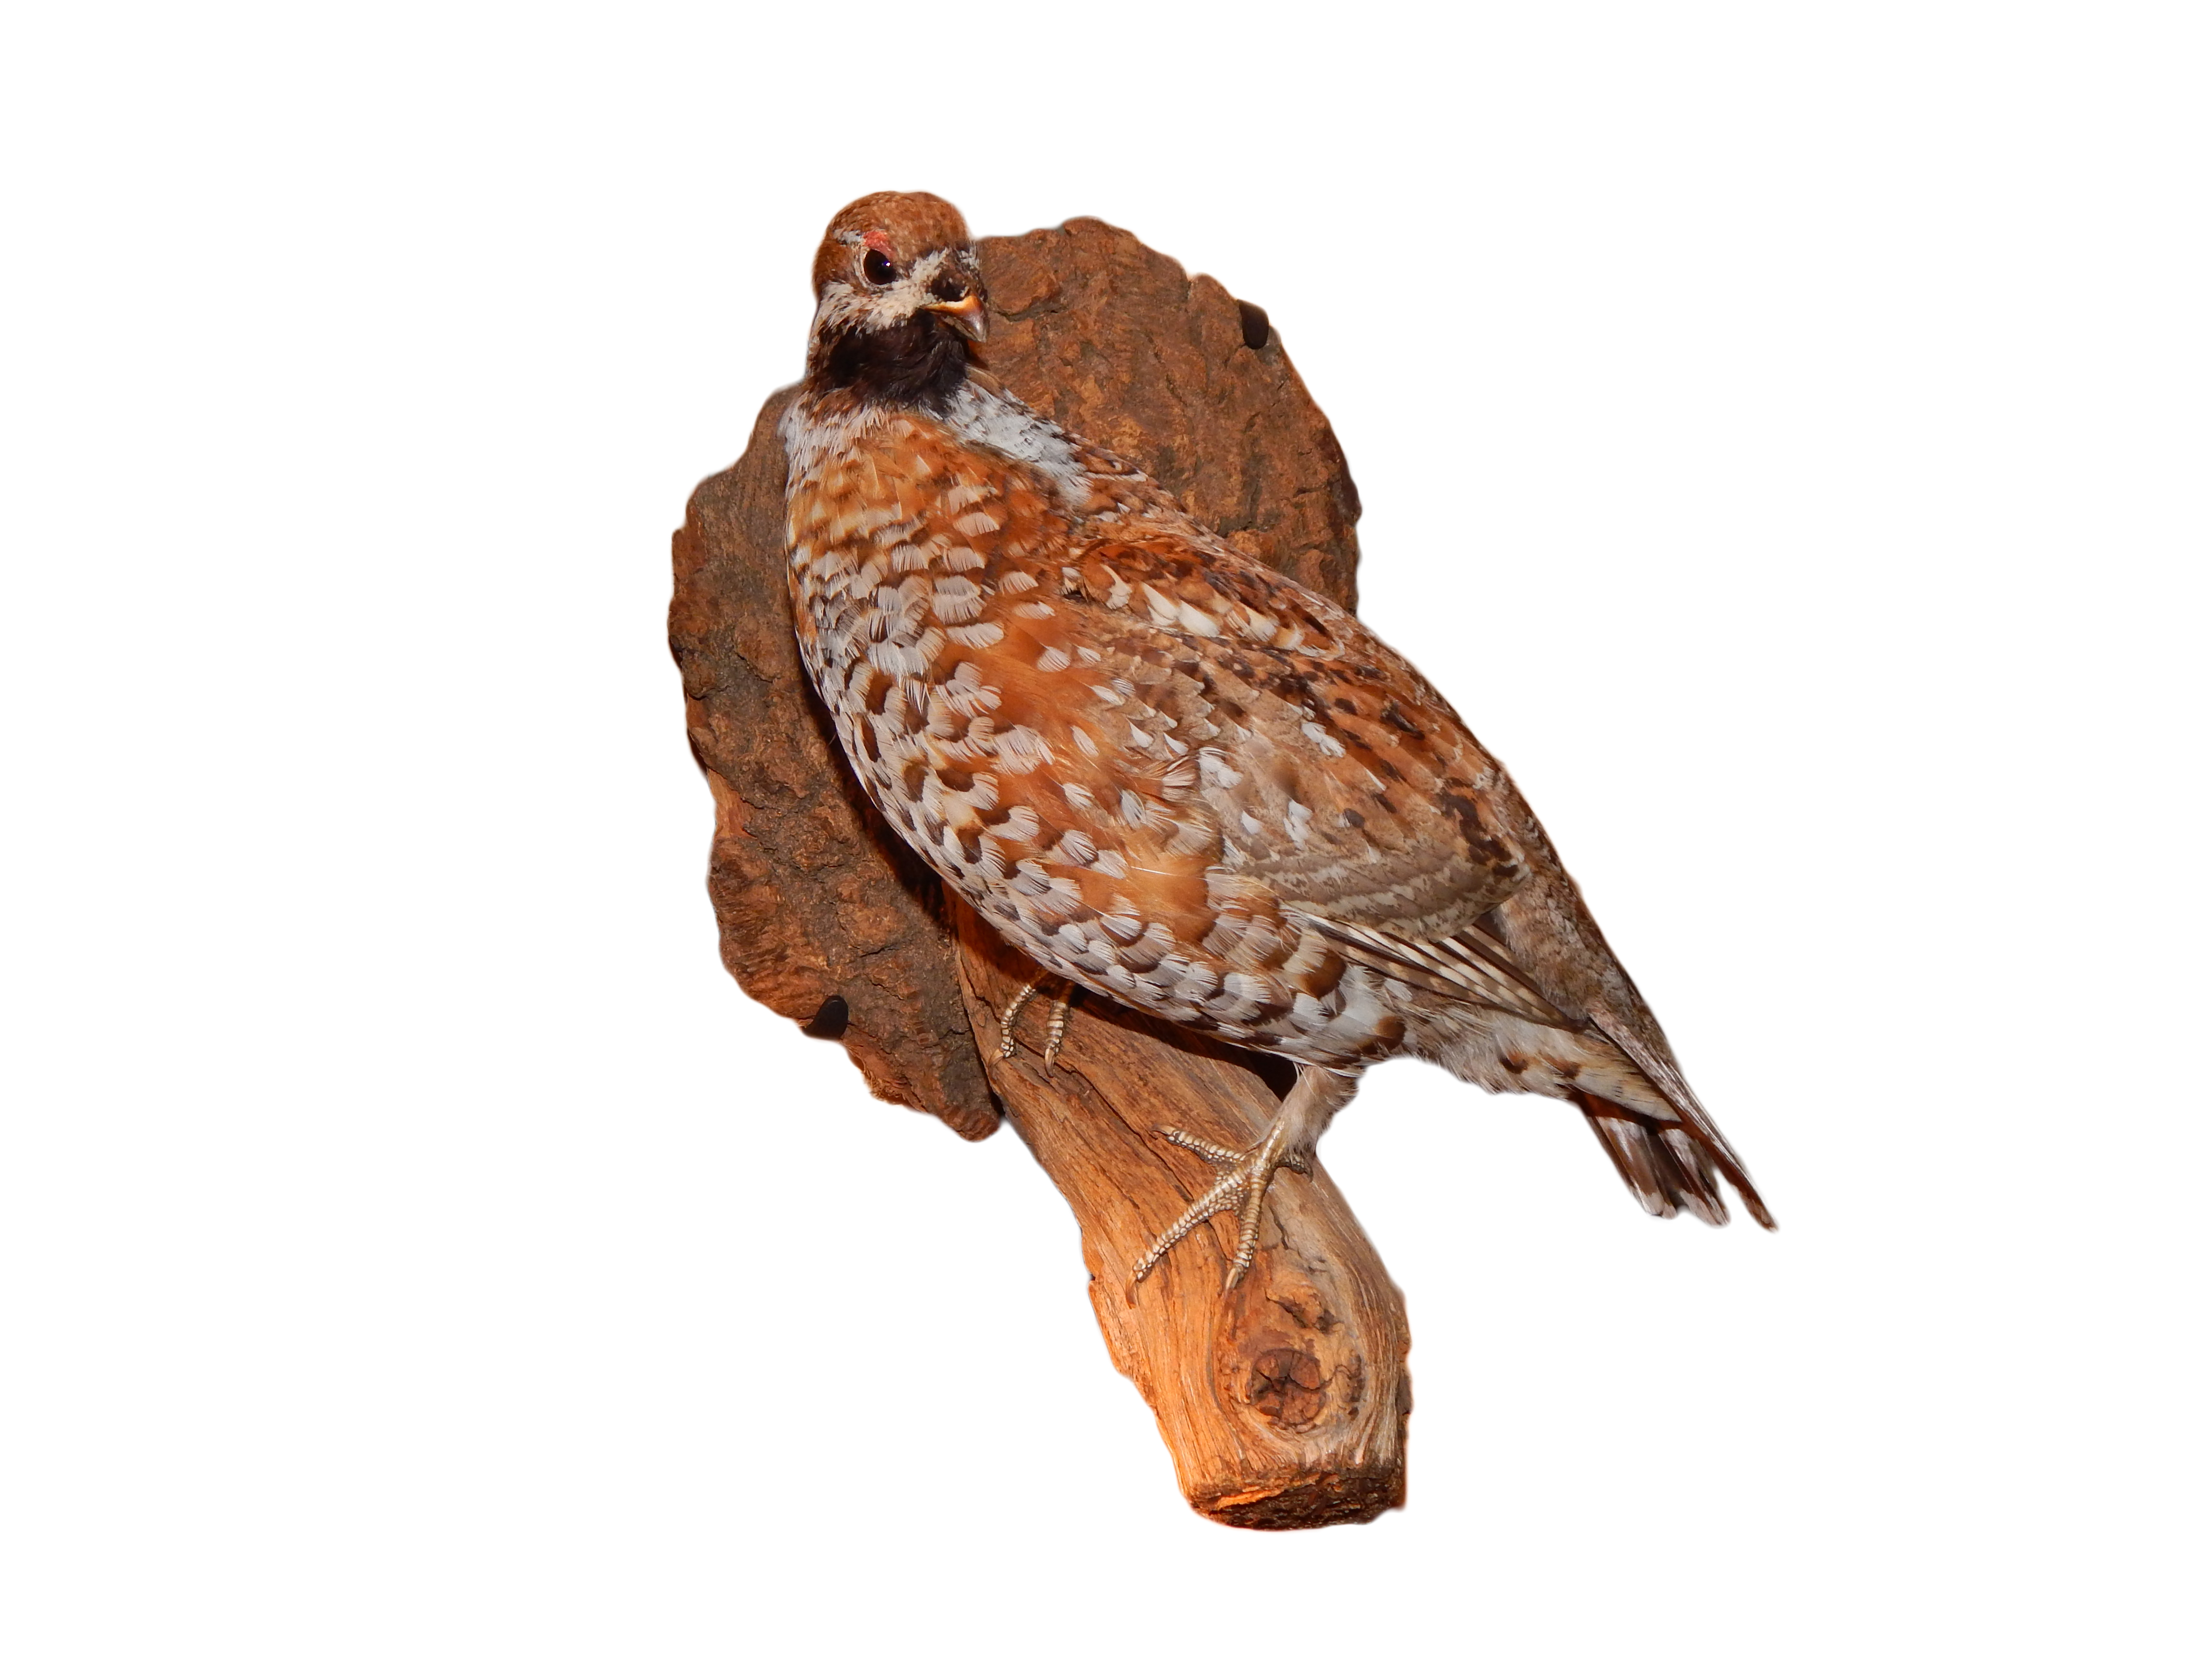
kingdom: Animalia
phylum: Chordata
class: Aves
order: Galliformes
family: Phasianidae
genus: Tetrastes
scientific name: Tetrastes bonasia
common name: Hazel grouse
